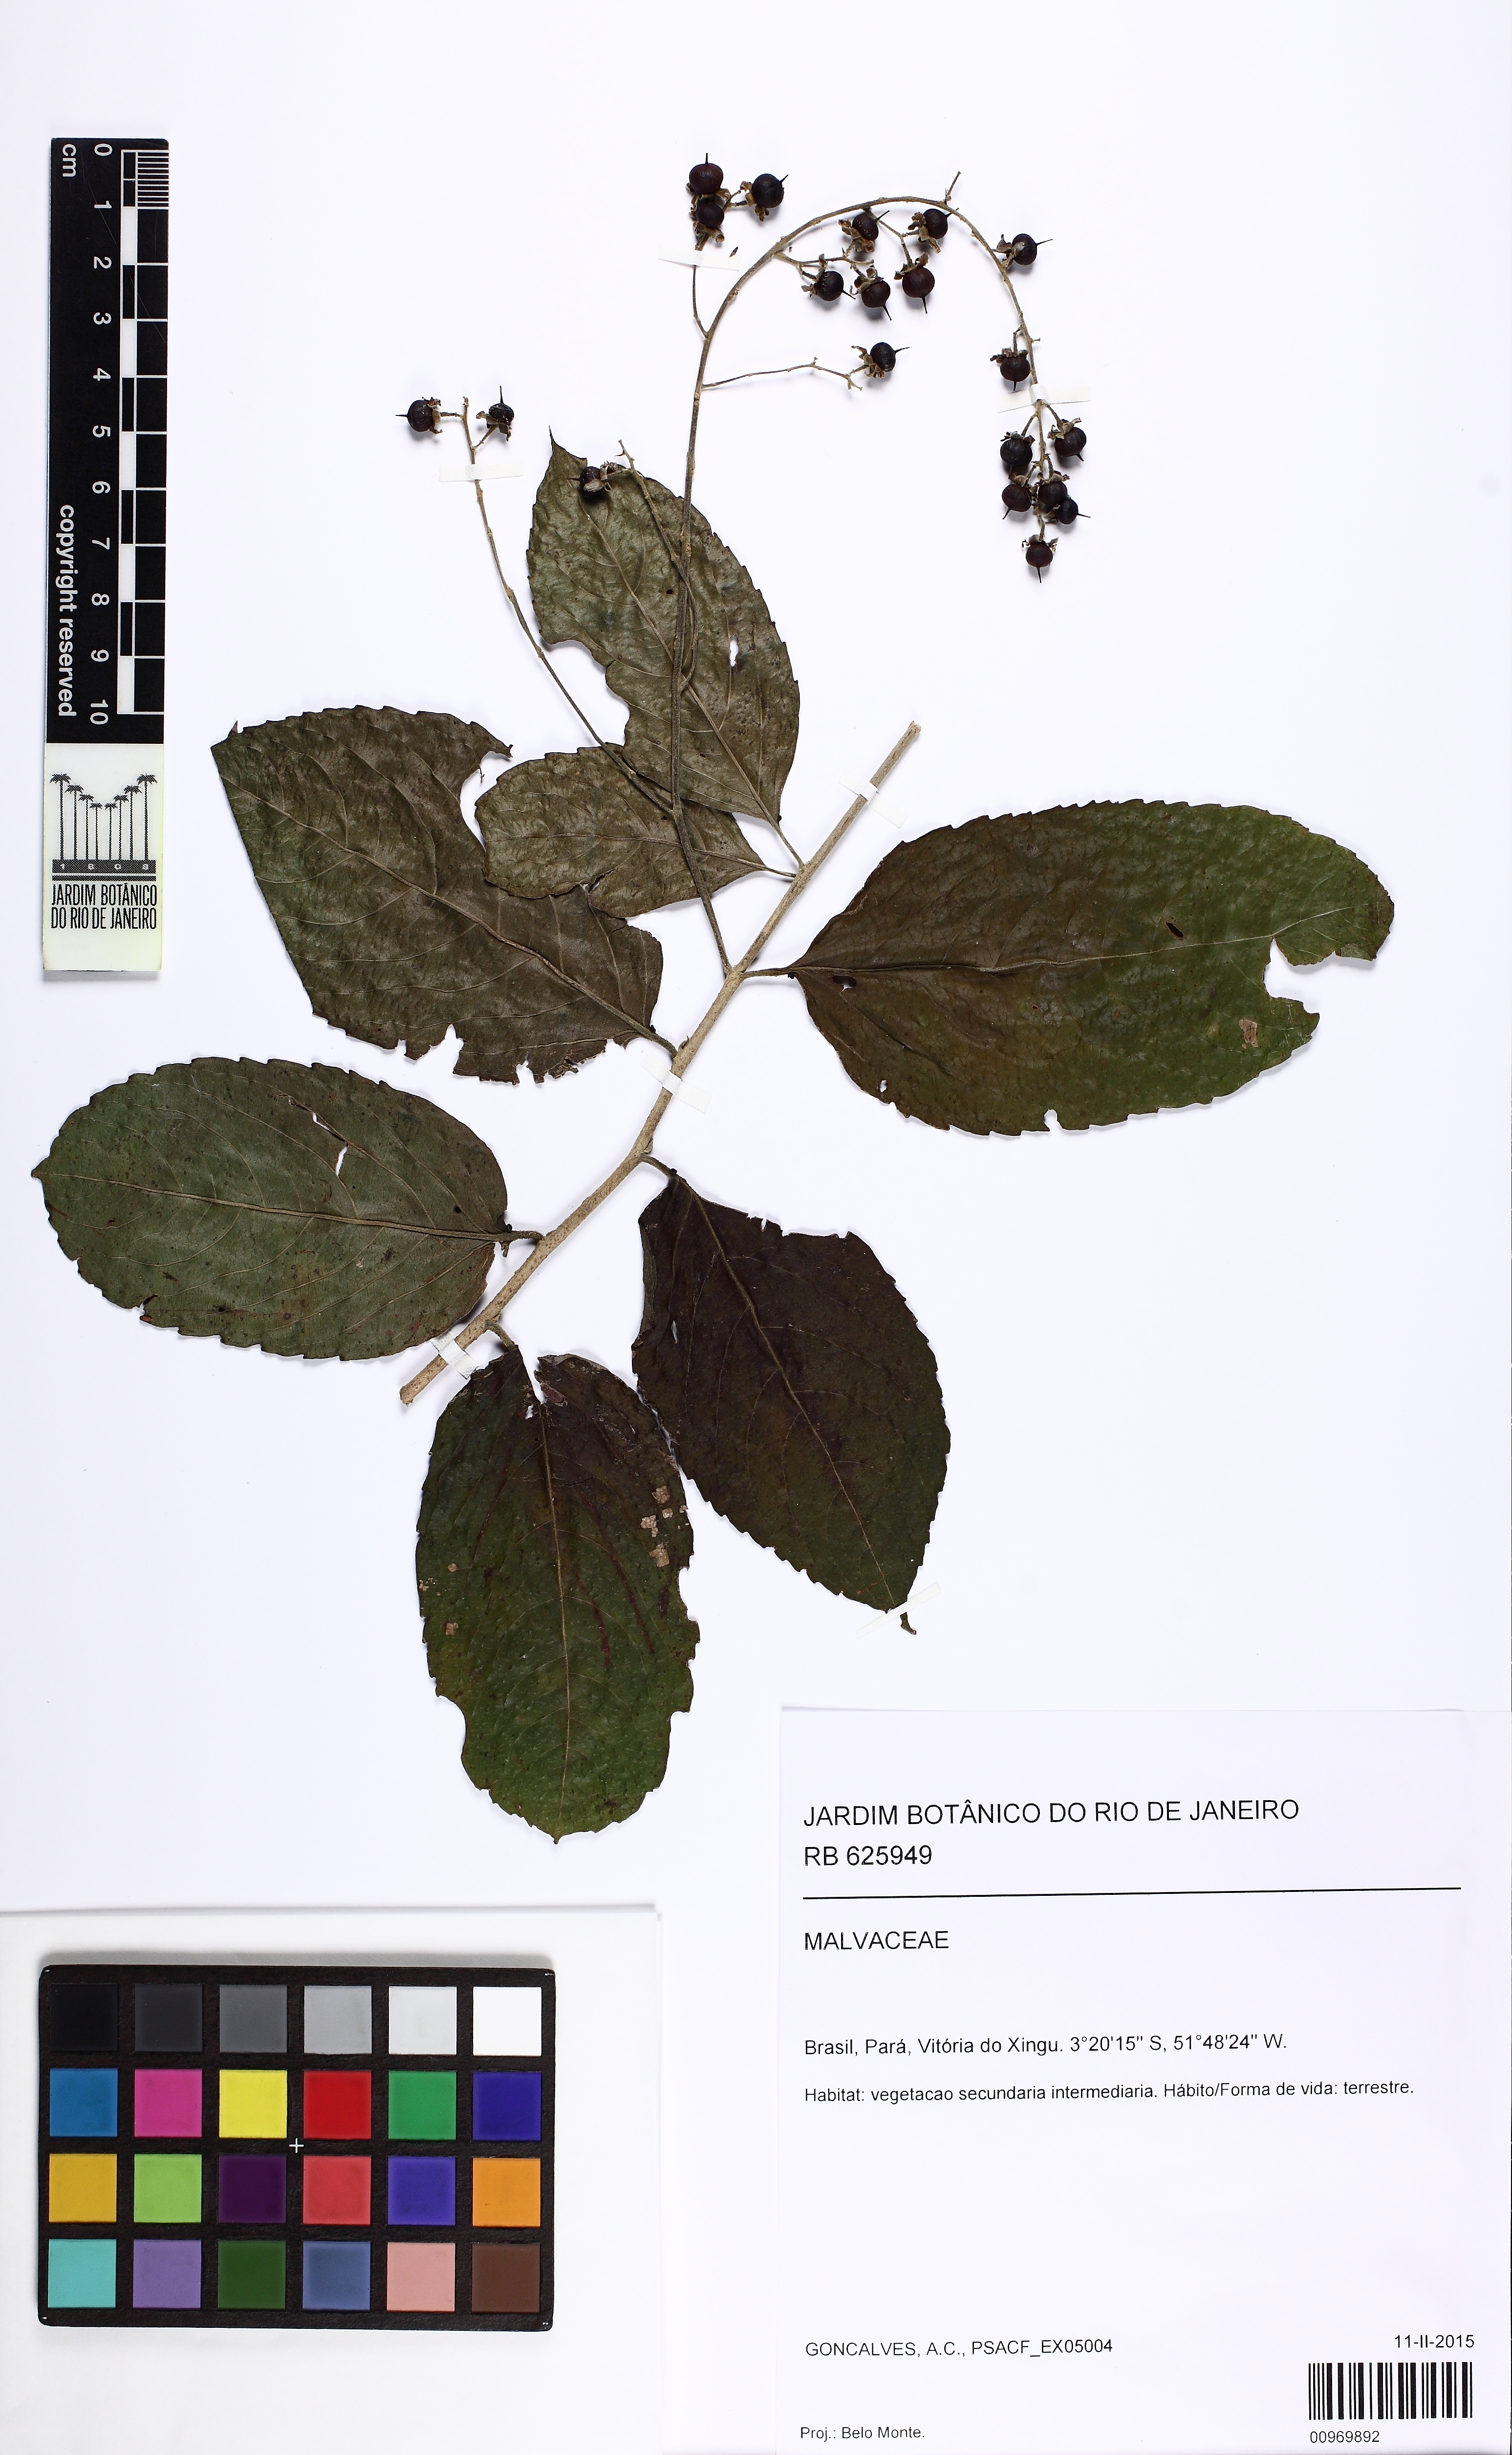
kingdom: Plantae
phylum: Tracheophyta
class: Magnoliopsida
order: Malpighiales
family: Salicaceae
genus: Banara
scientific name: Banara guianensis
